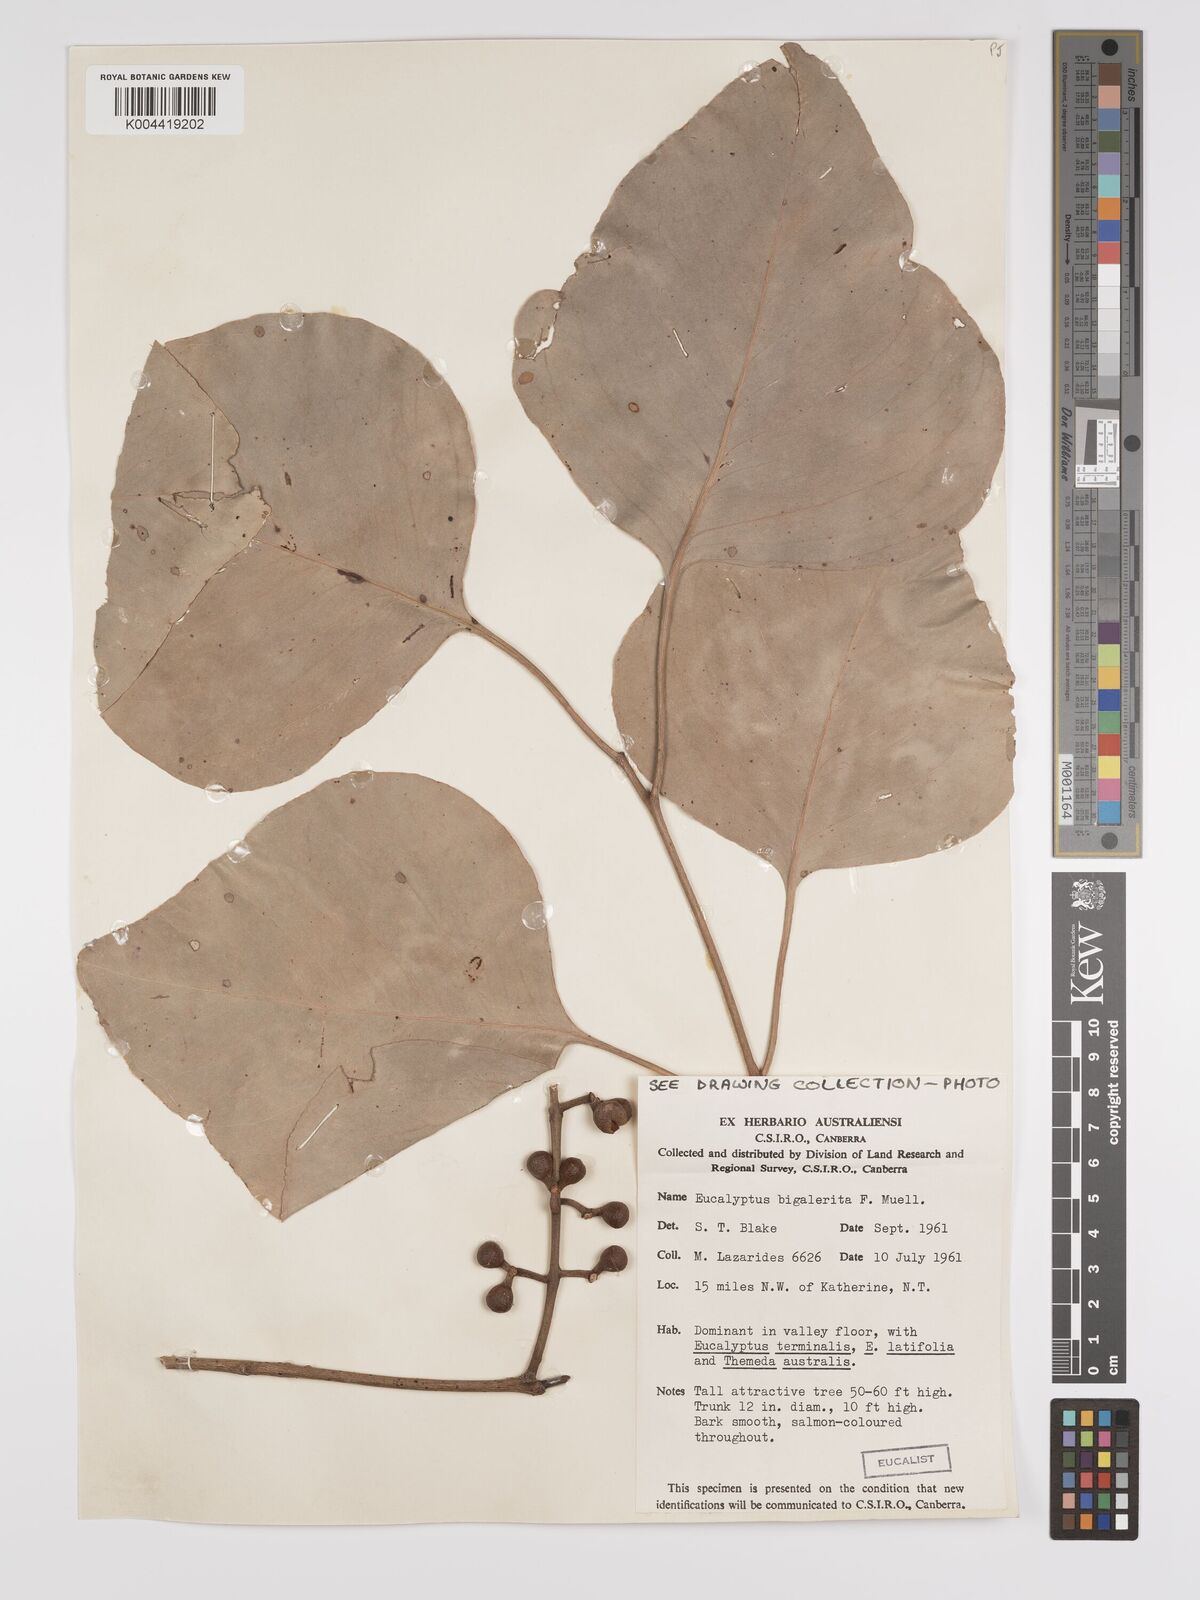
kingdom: Plantae
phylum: Tracheophyta
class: Magnoliopsida
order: Myrtales
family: Myrtaceae
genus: Eucalyptus
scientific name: Eucalyptus bigalerita
